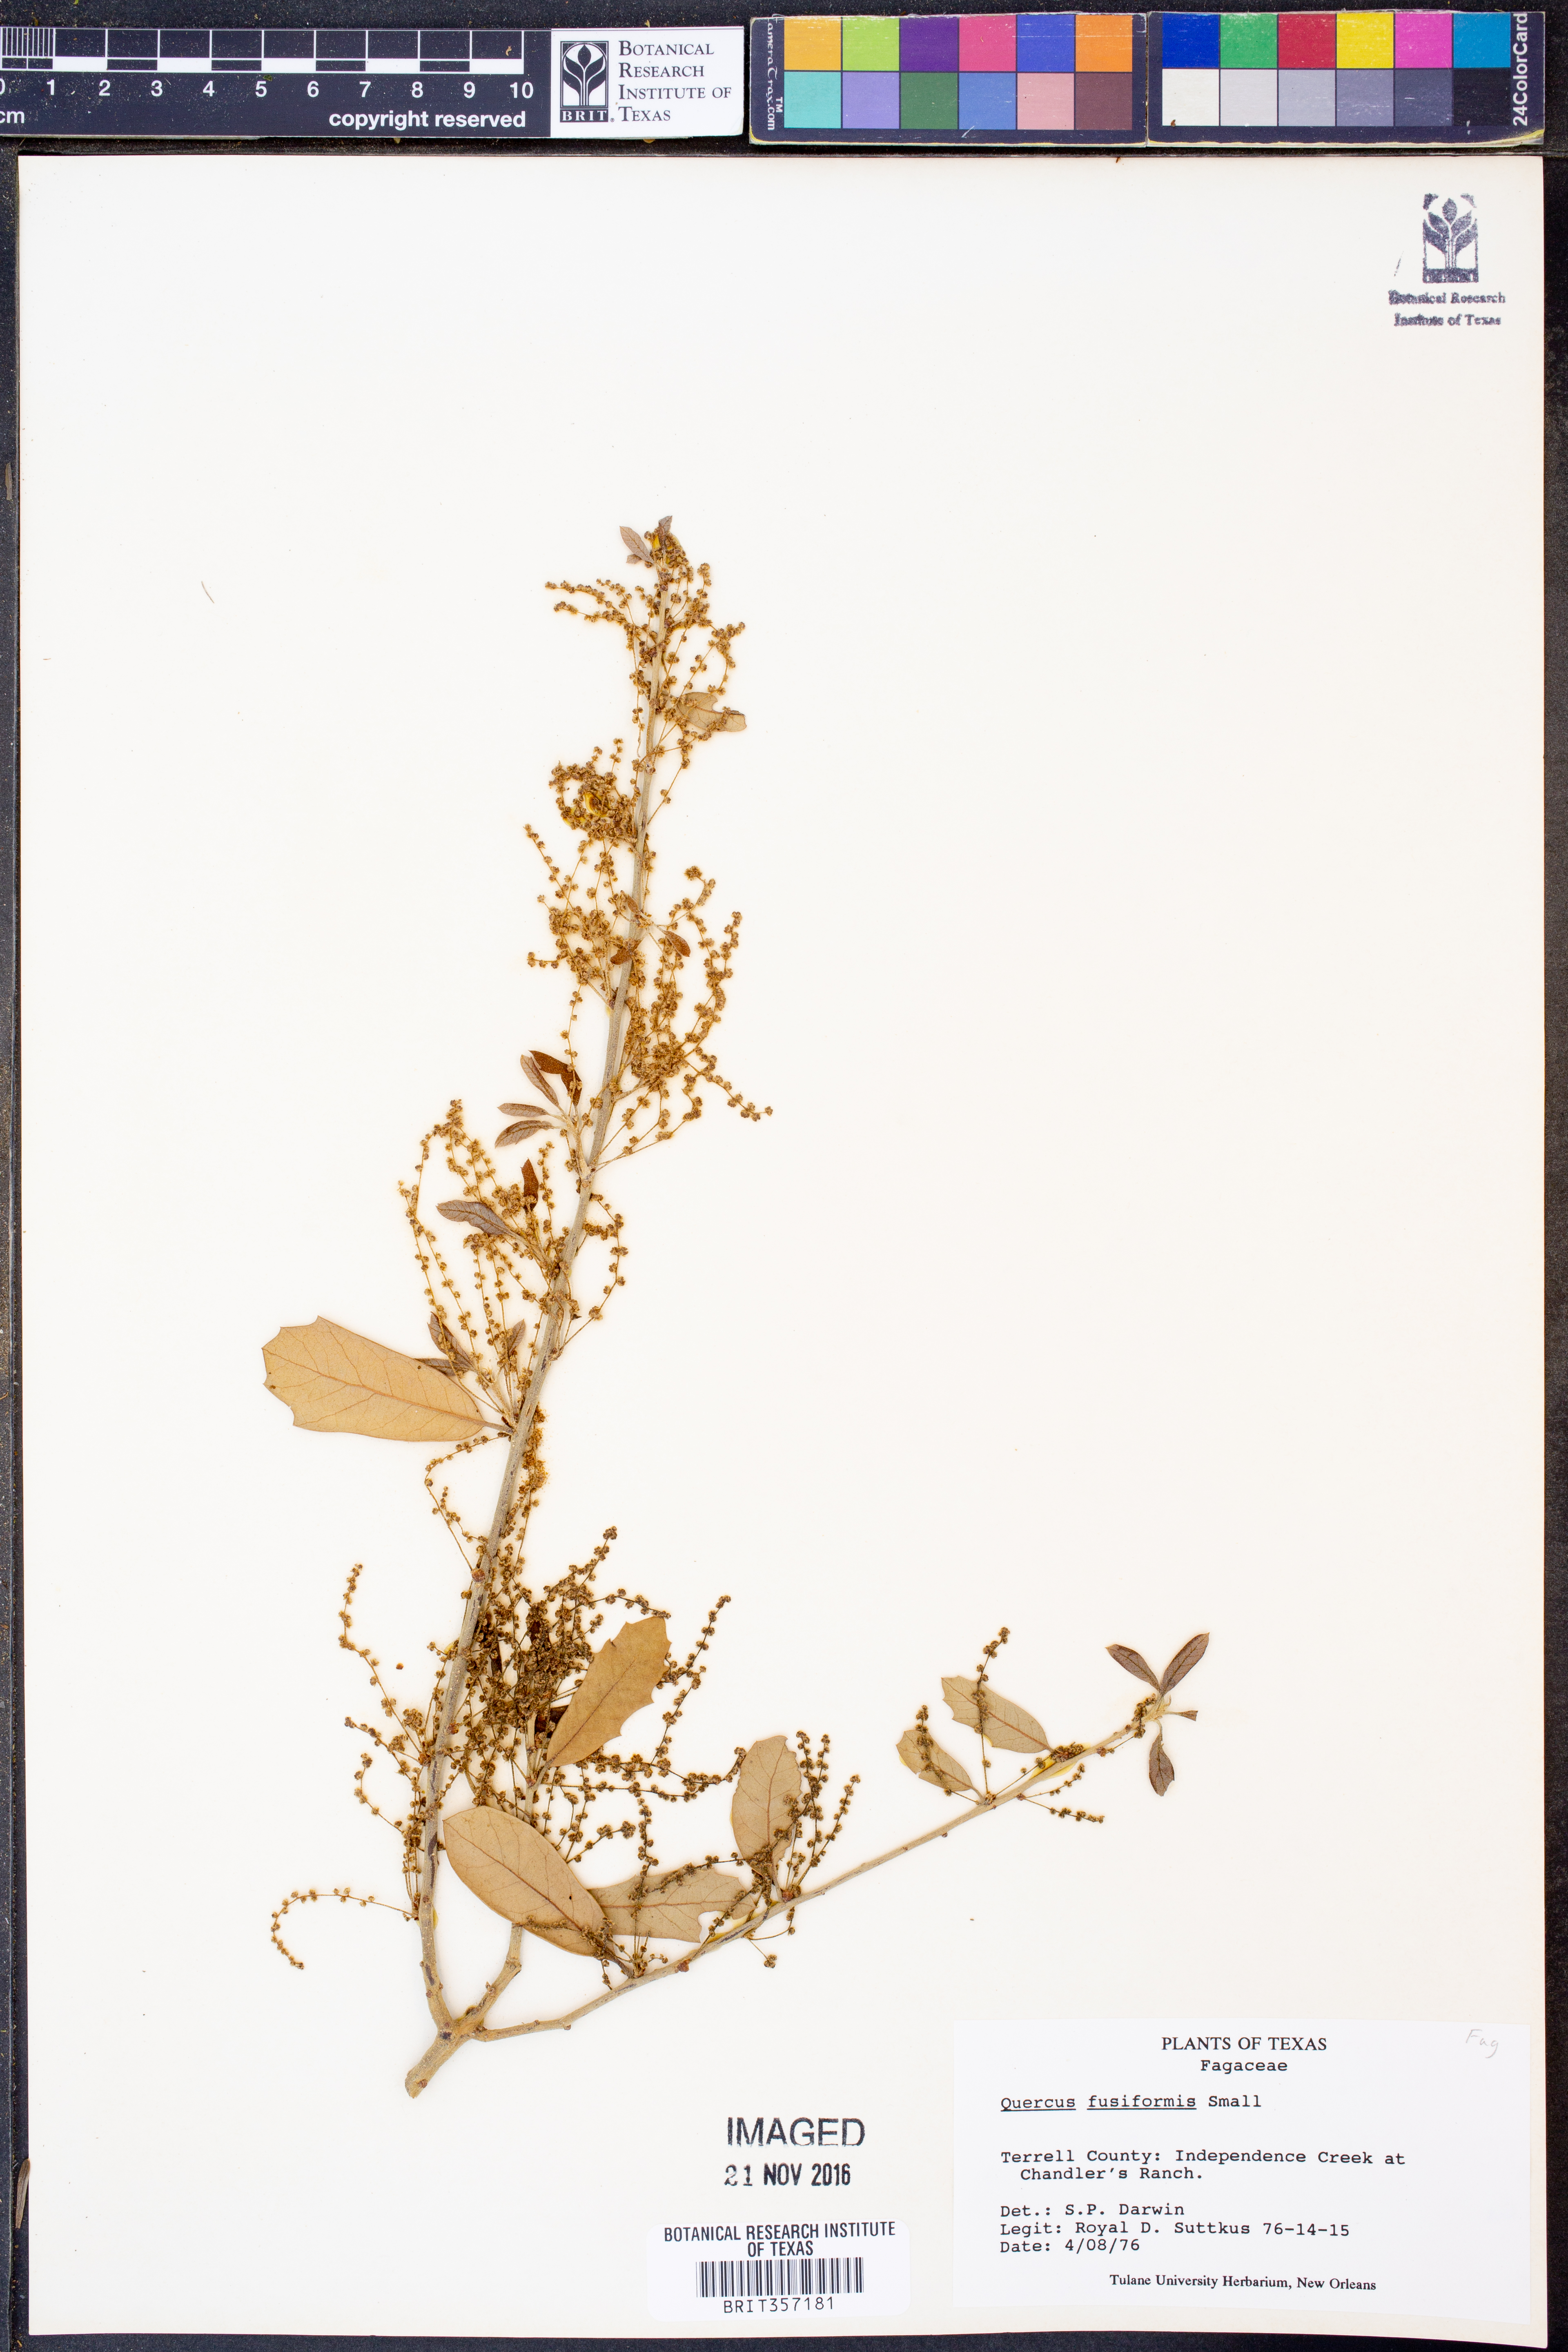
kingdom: Plantae
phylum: Tracheophyta
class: Magnoliopsida
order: Fagales
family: Fagaceae
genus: Quercus
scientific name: Quercus fusiformis
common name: Texas live oak
